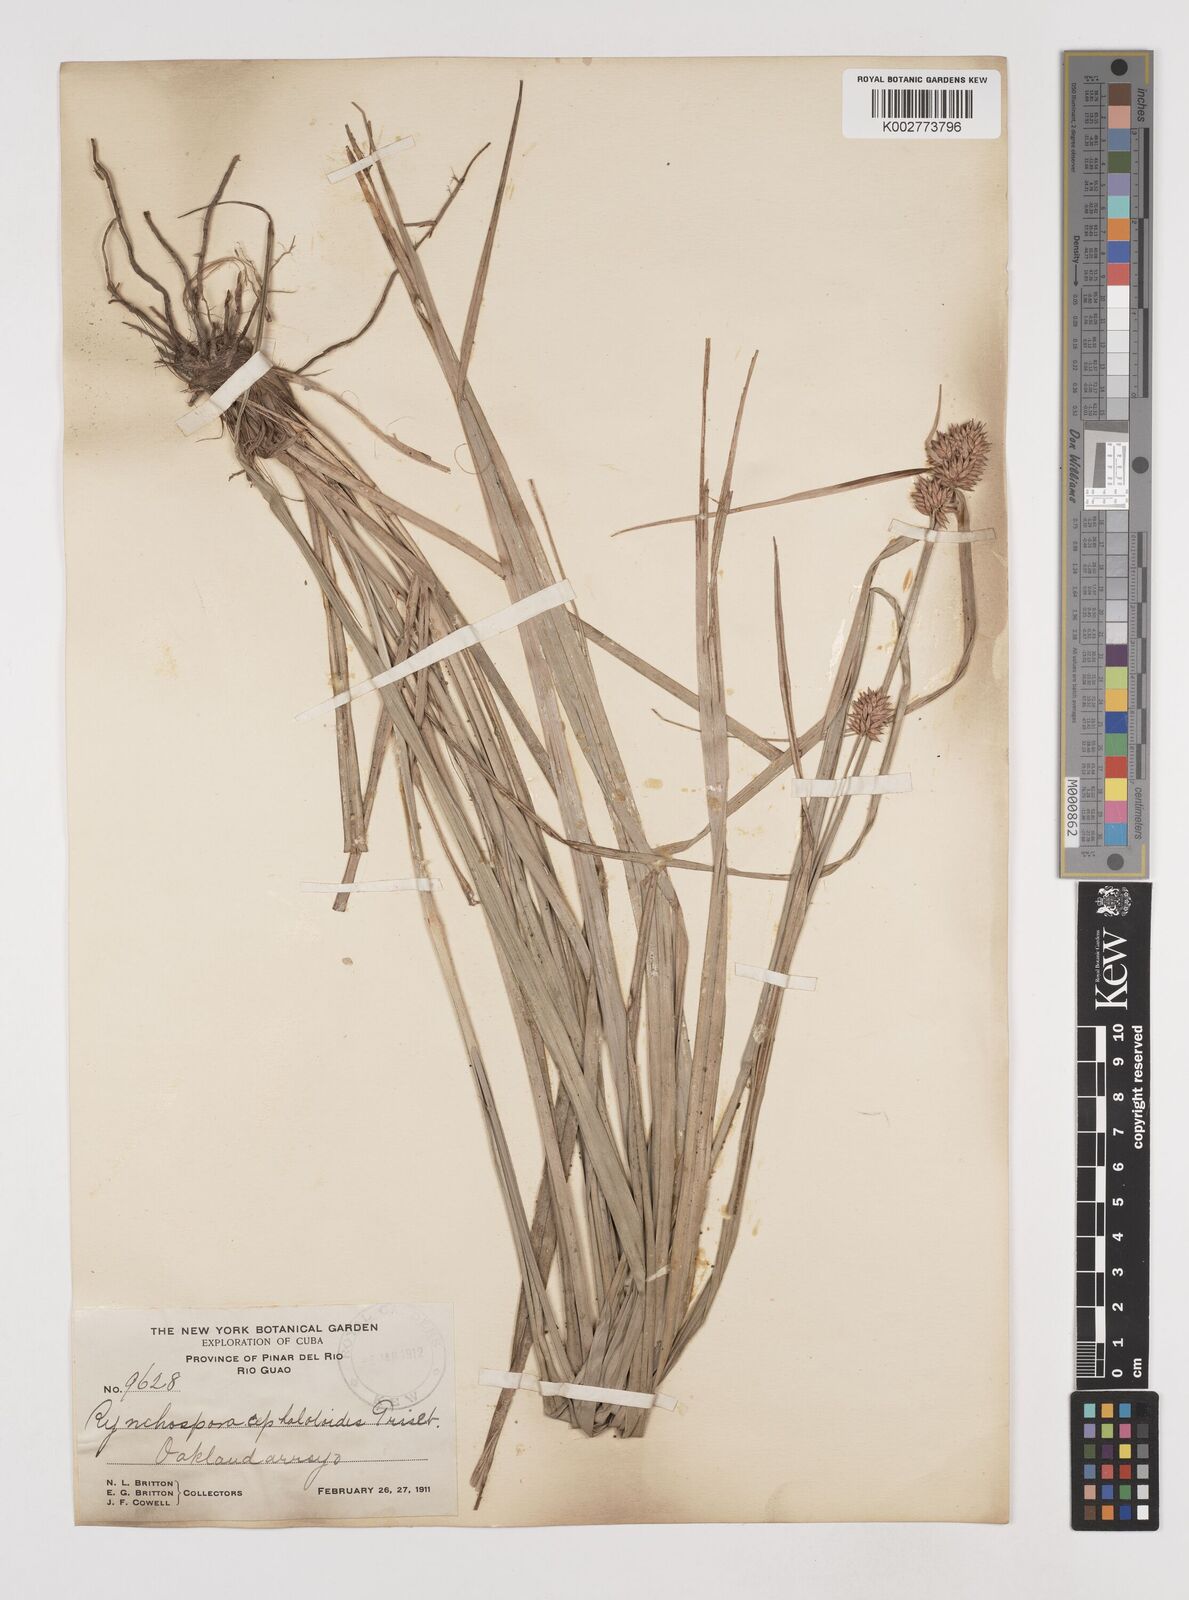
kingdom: Plantae
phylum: Tracheophyta
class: Liliopsida
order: Poales
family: Cyperaceae
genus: Rhynchospora
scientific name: Rhynchospora cephalotoides
